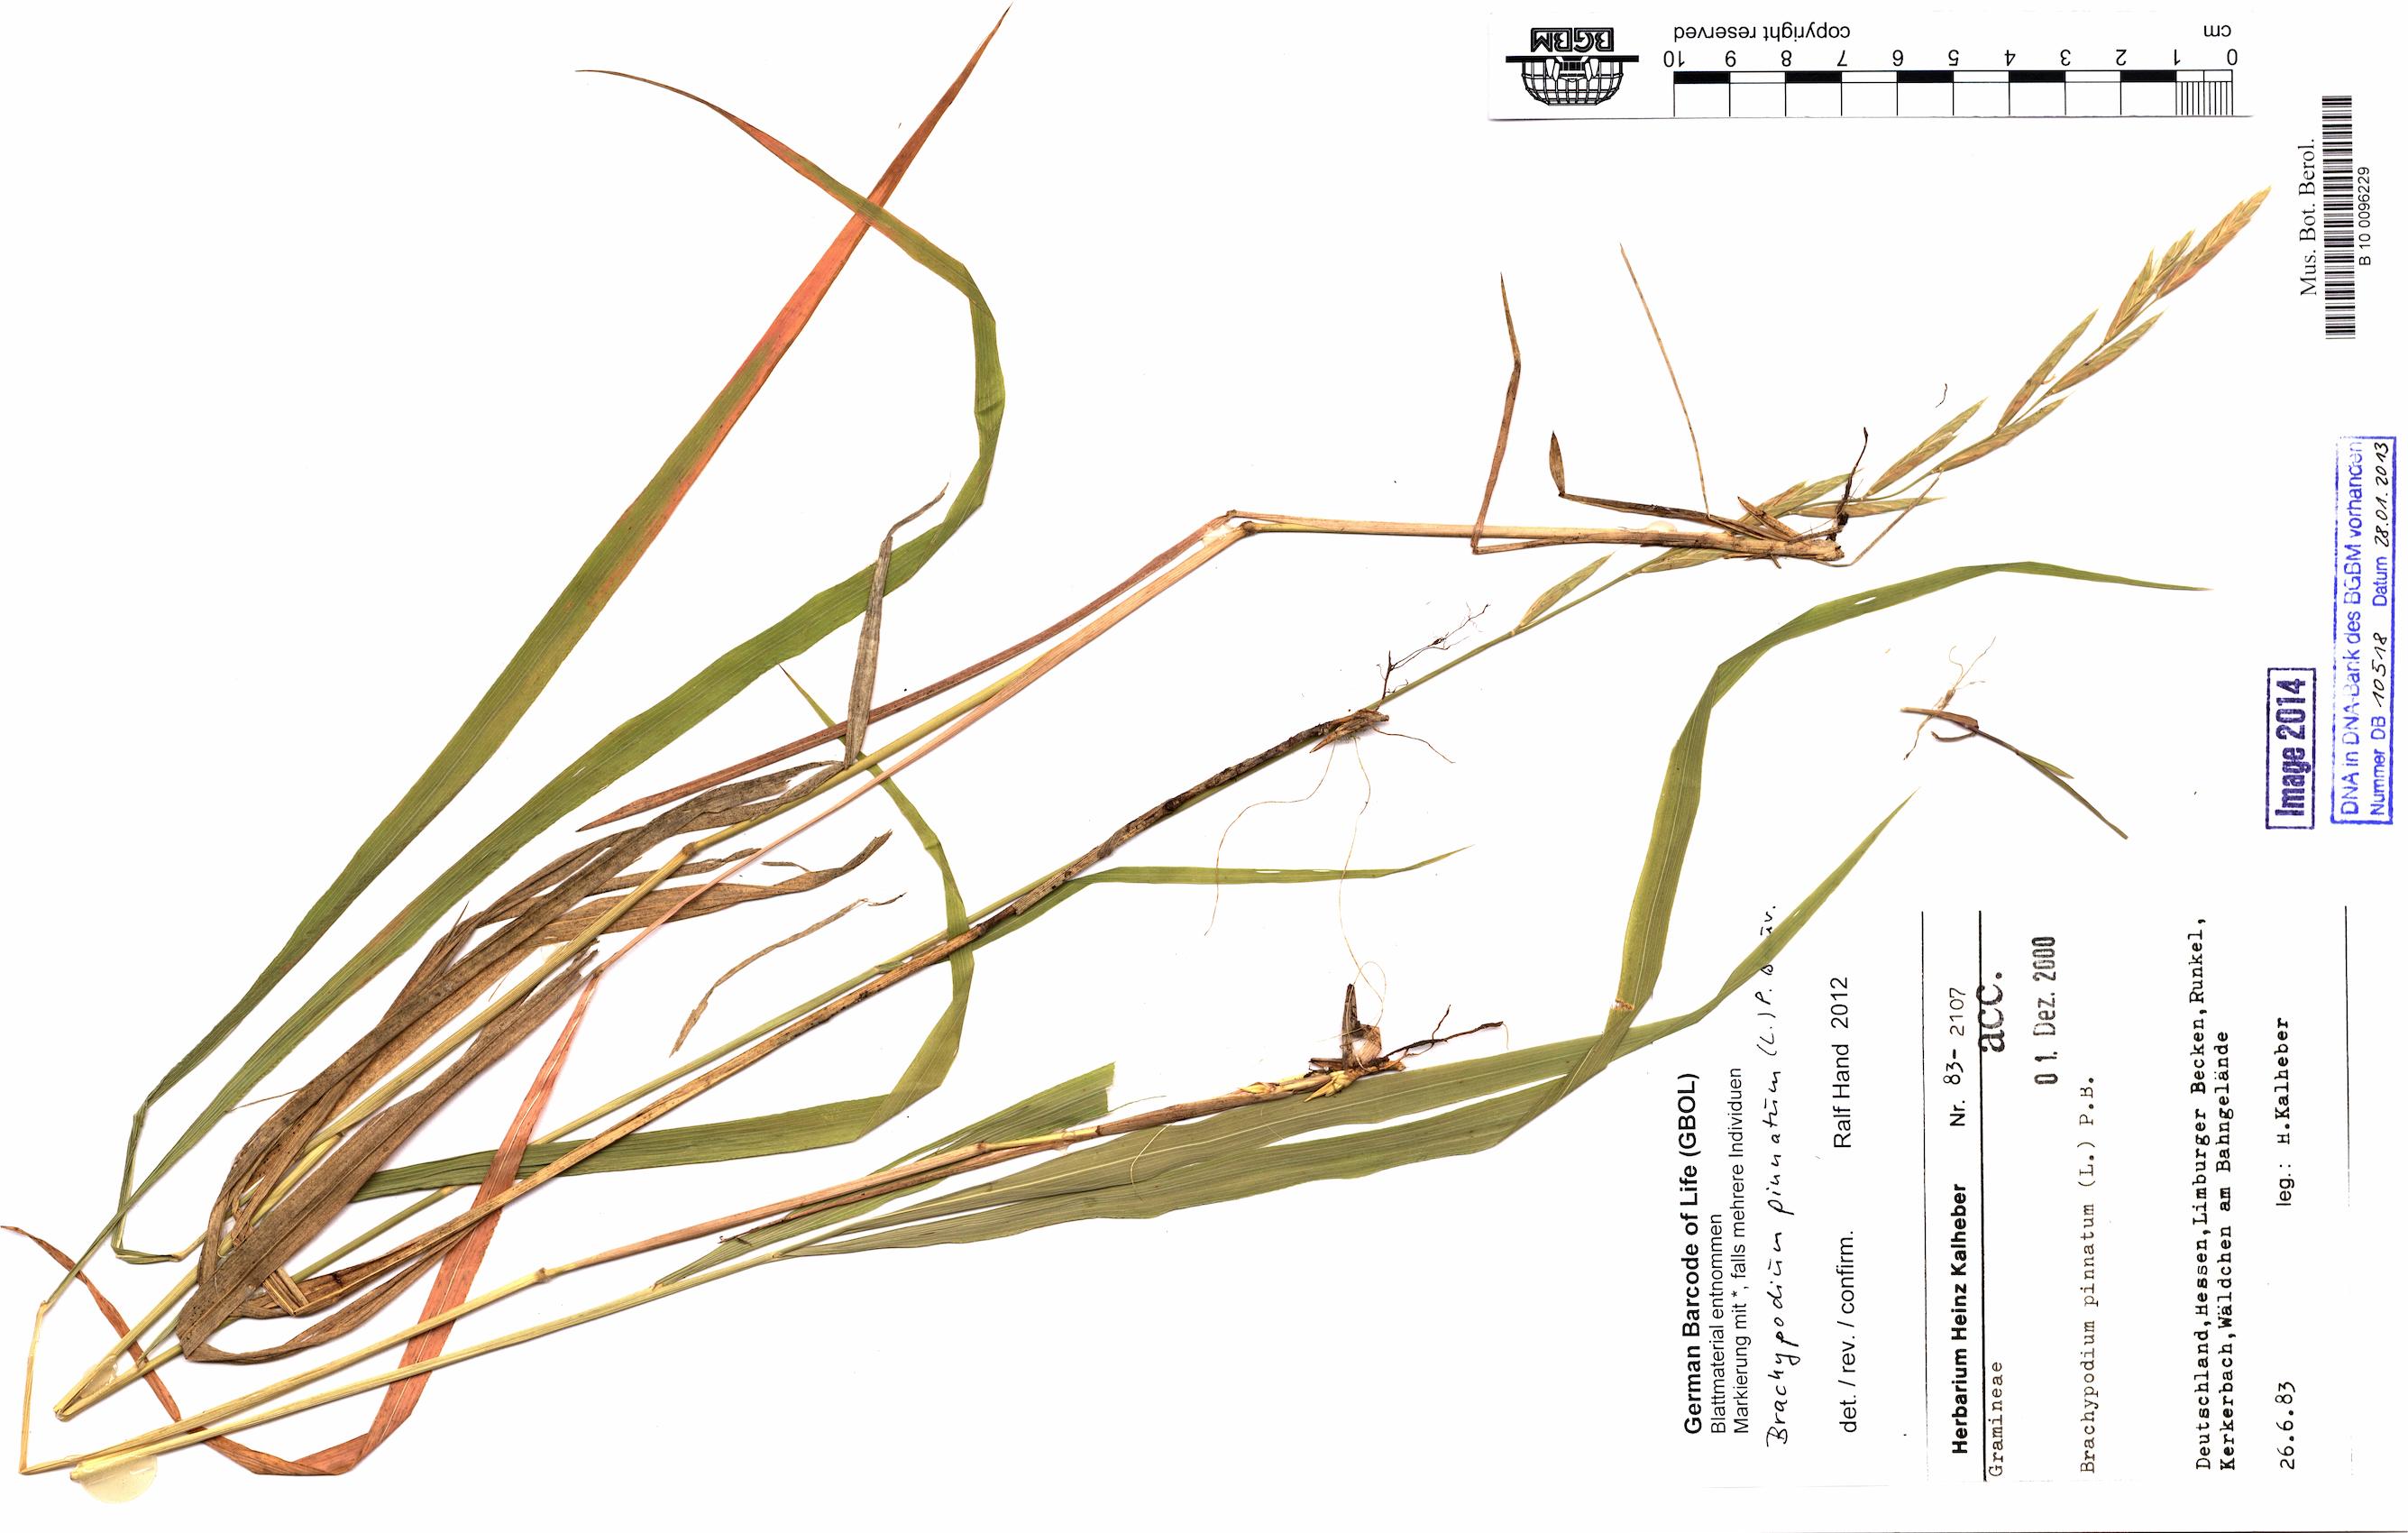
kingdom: Plantae
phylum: Tracheophyta
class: Liliopsida
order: Poales
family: Poaceae
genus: Brachypodium
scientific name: Brachypodium pinnatum
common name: Tor grass
